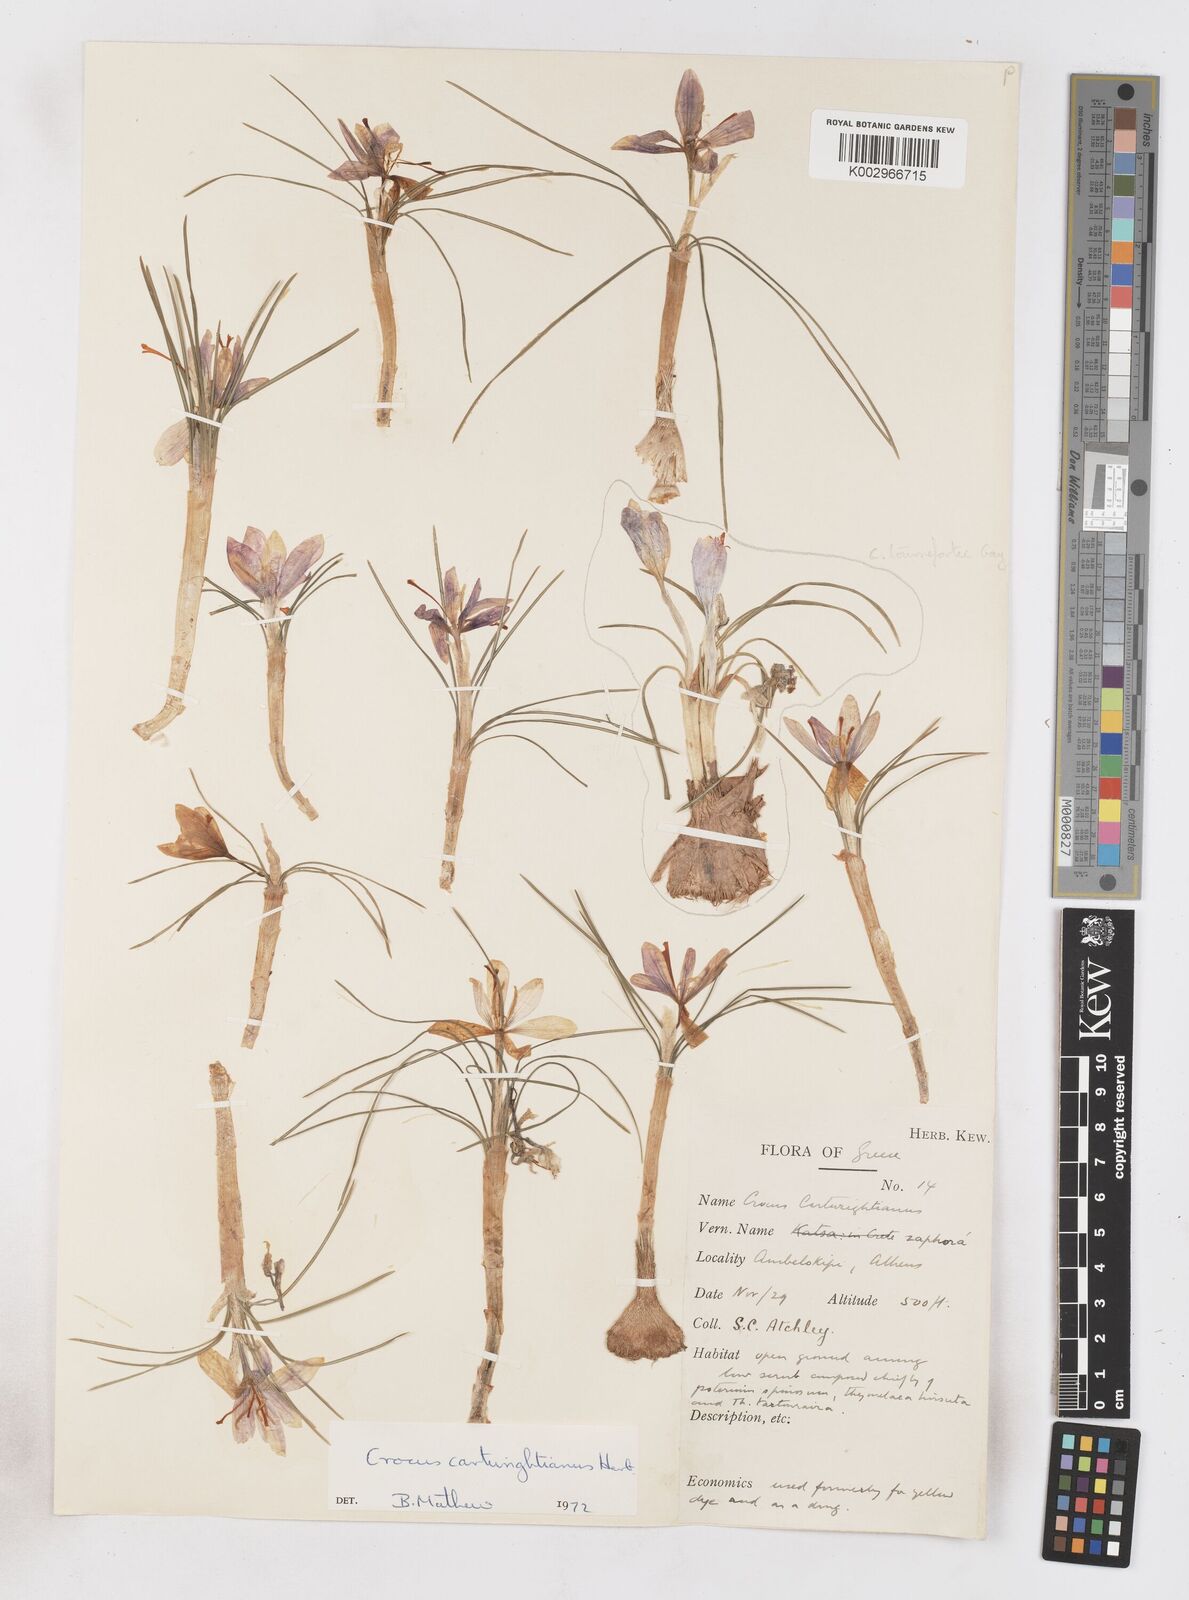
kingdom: Plantae
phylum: Tracheophyta
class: Liliopsida
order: Asparagales
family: Iridaceae
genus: Crocus
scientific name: Crocus cartwrightianus
